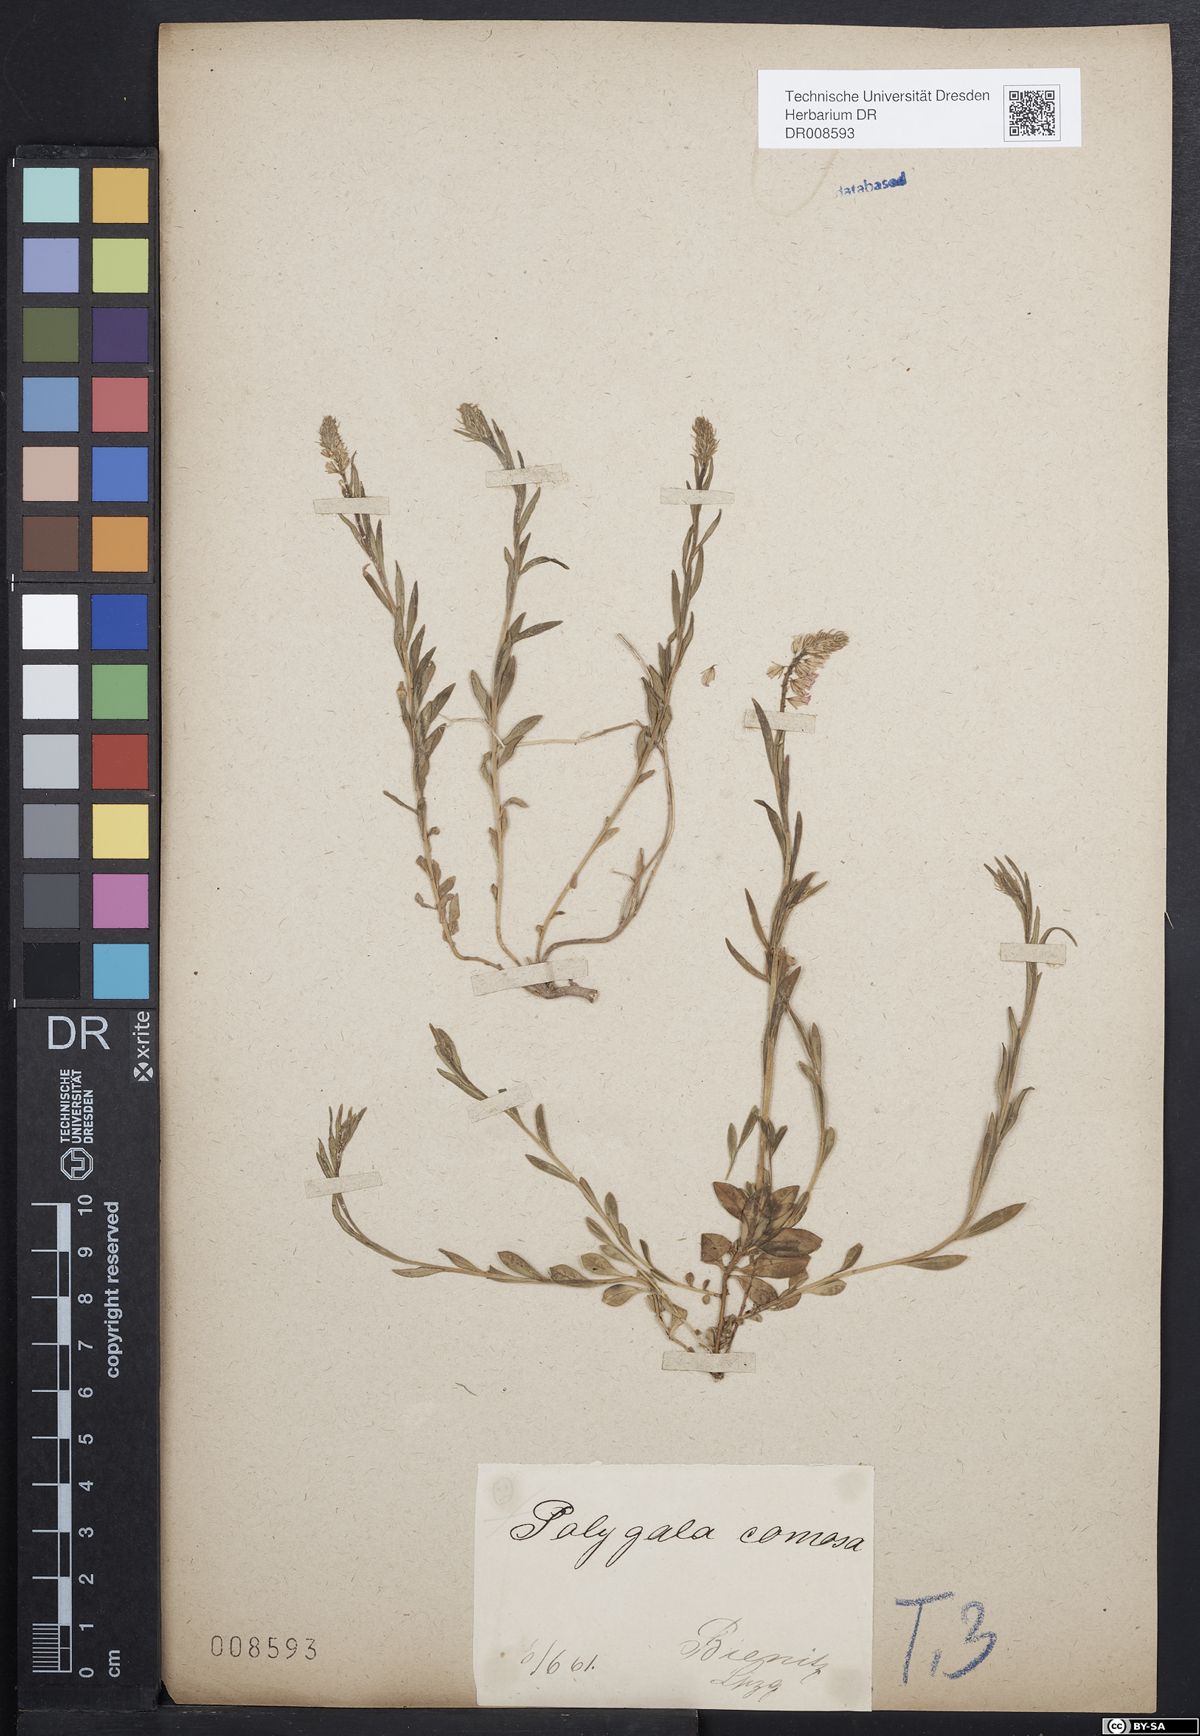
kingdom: Plantae
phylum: Tracheophyta
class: Magnoliopsida
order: Fabales
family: Polygalaceae
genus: Polygala
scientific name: Polygala comosa
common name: Tufted milkwort
